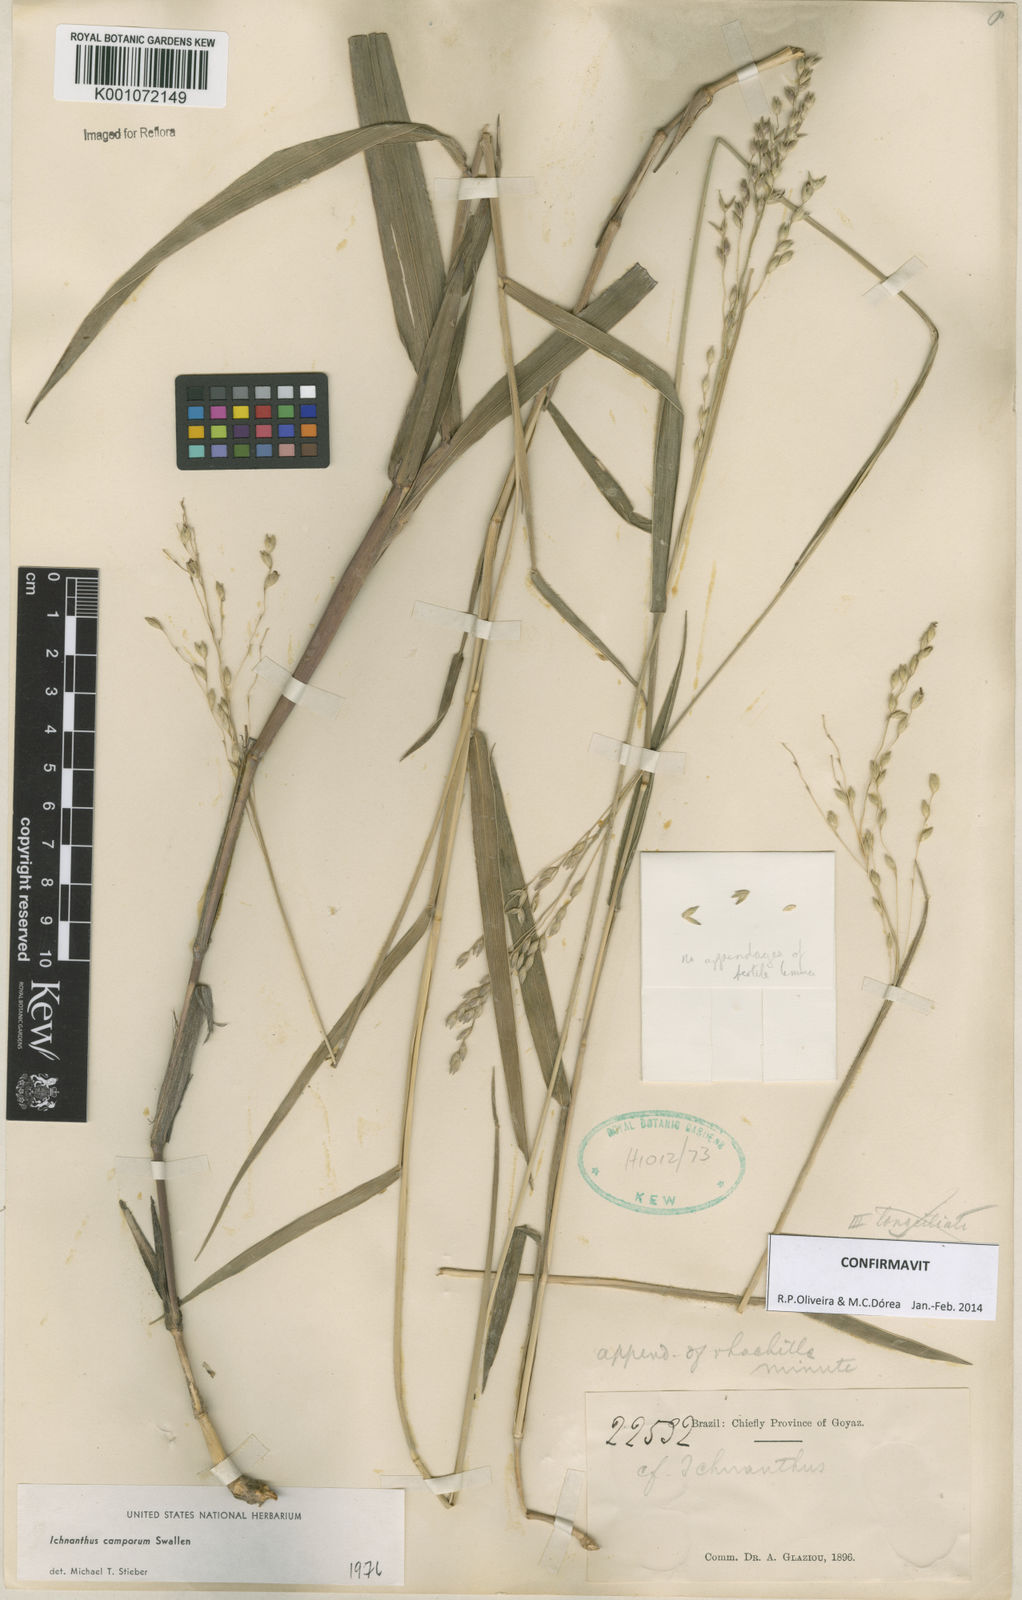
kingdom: Plantae
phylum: Tracheophyta
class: Liliopsida
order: Poales
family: Poaceae
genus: Oedochloa
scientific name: Oedochloa camporum
